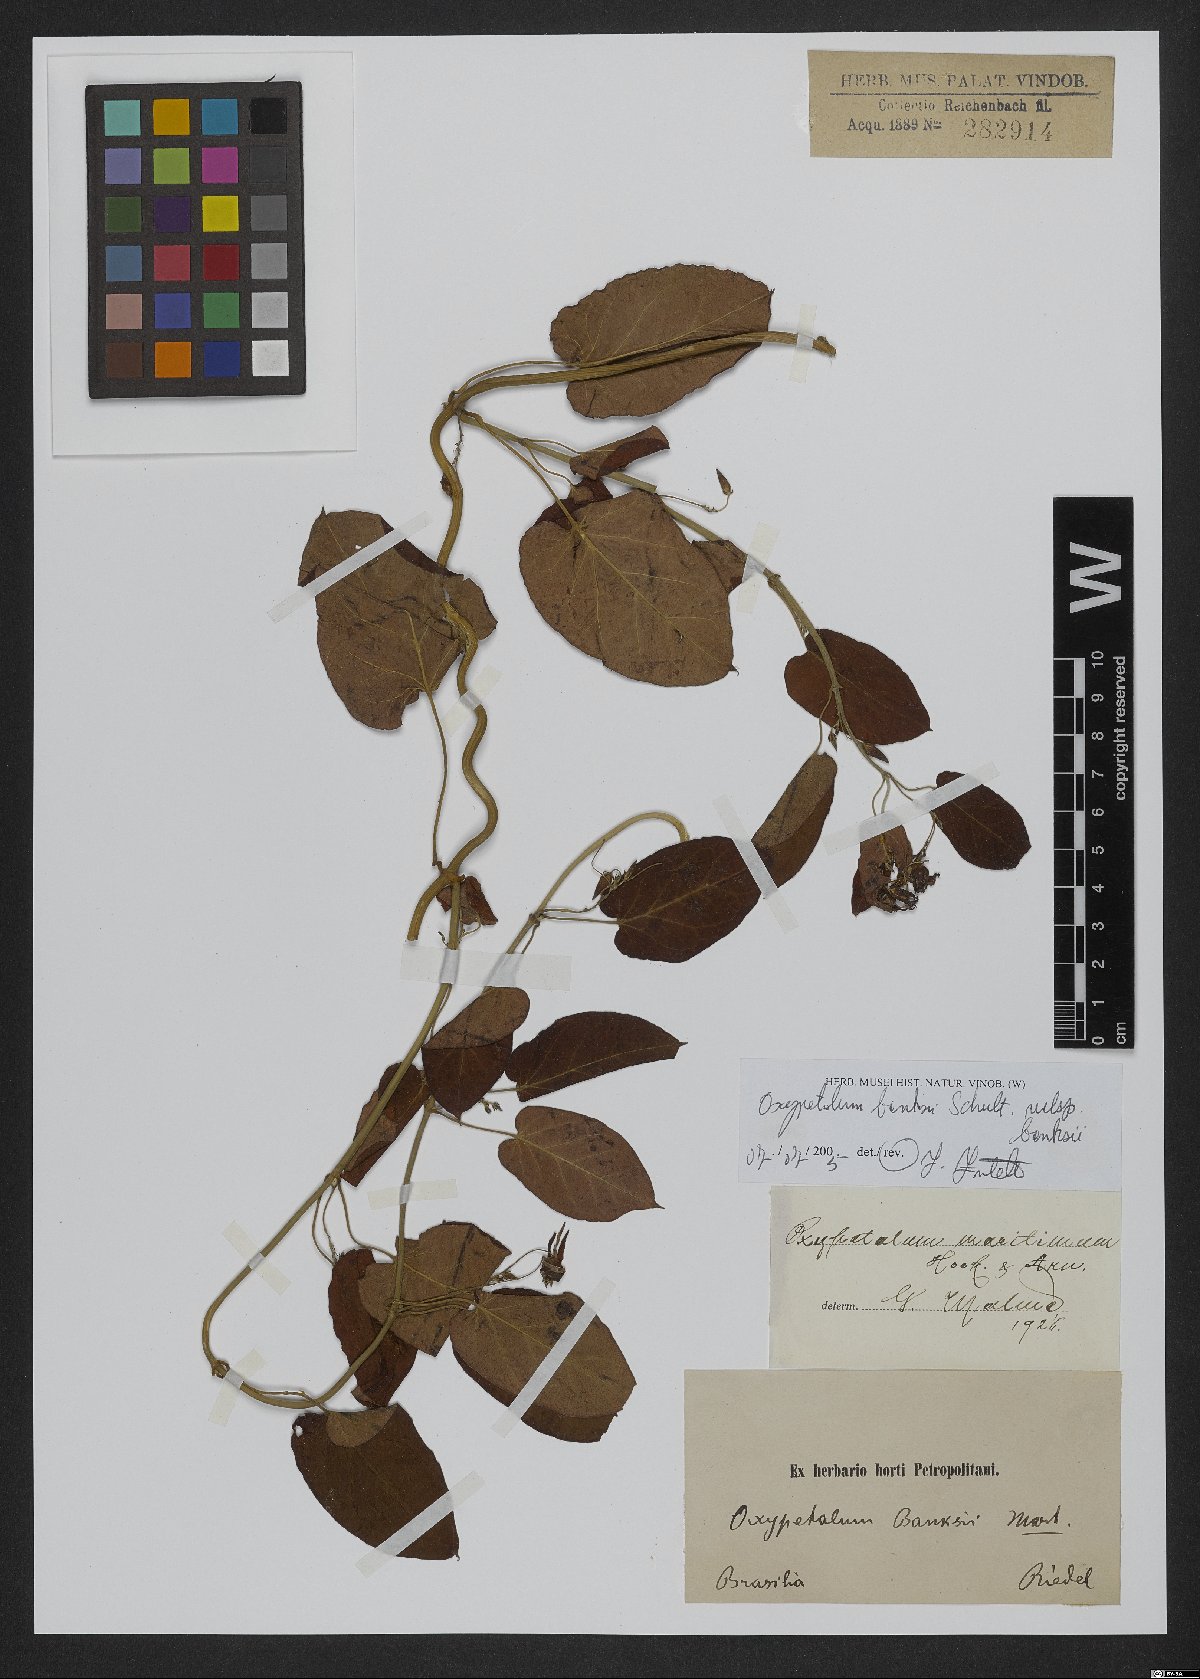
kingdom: Plantae
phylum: Tracheophyta
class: Magnoliopsida
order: Gentianales
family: Apocynaceae
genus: Oxypetalum
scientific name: Oxypetalum banksii
